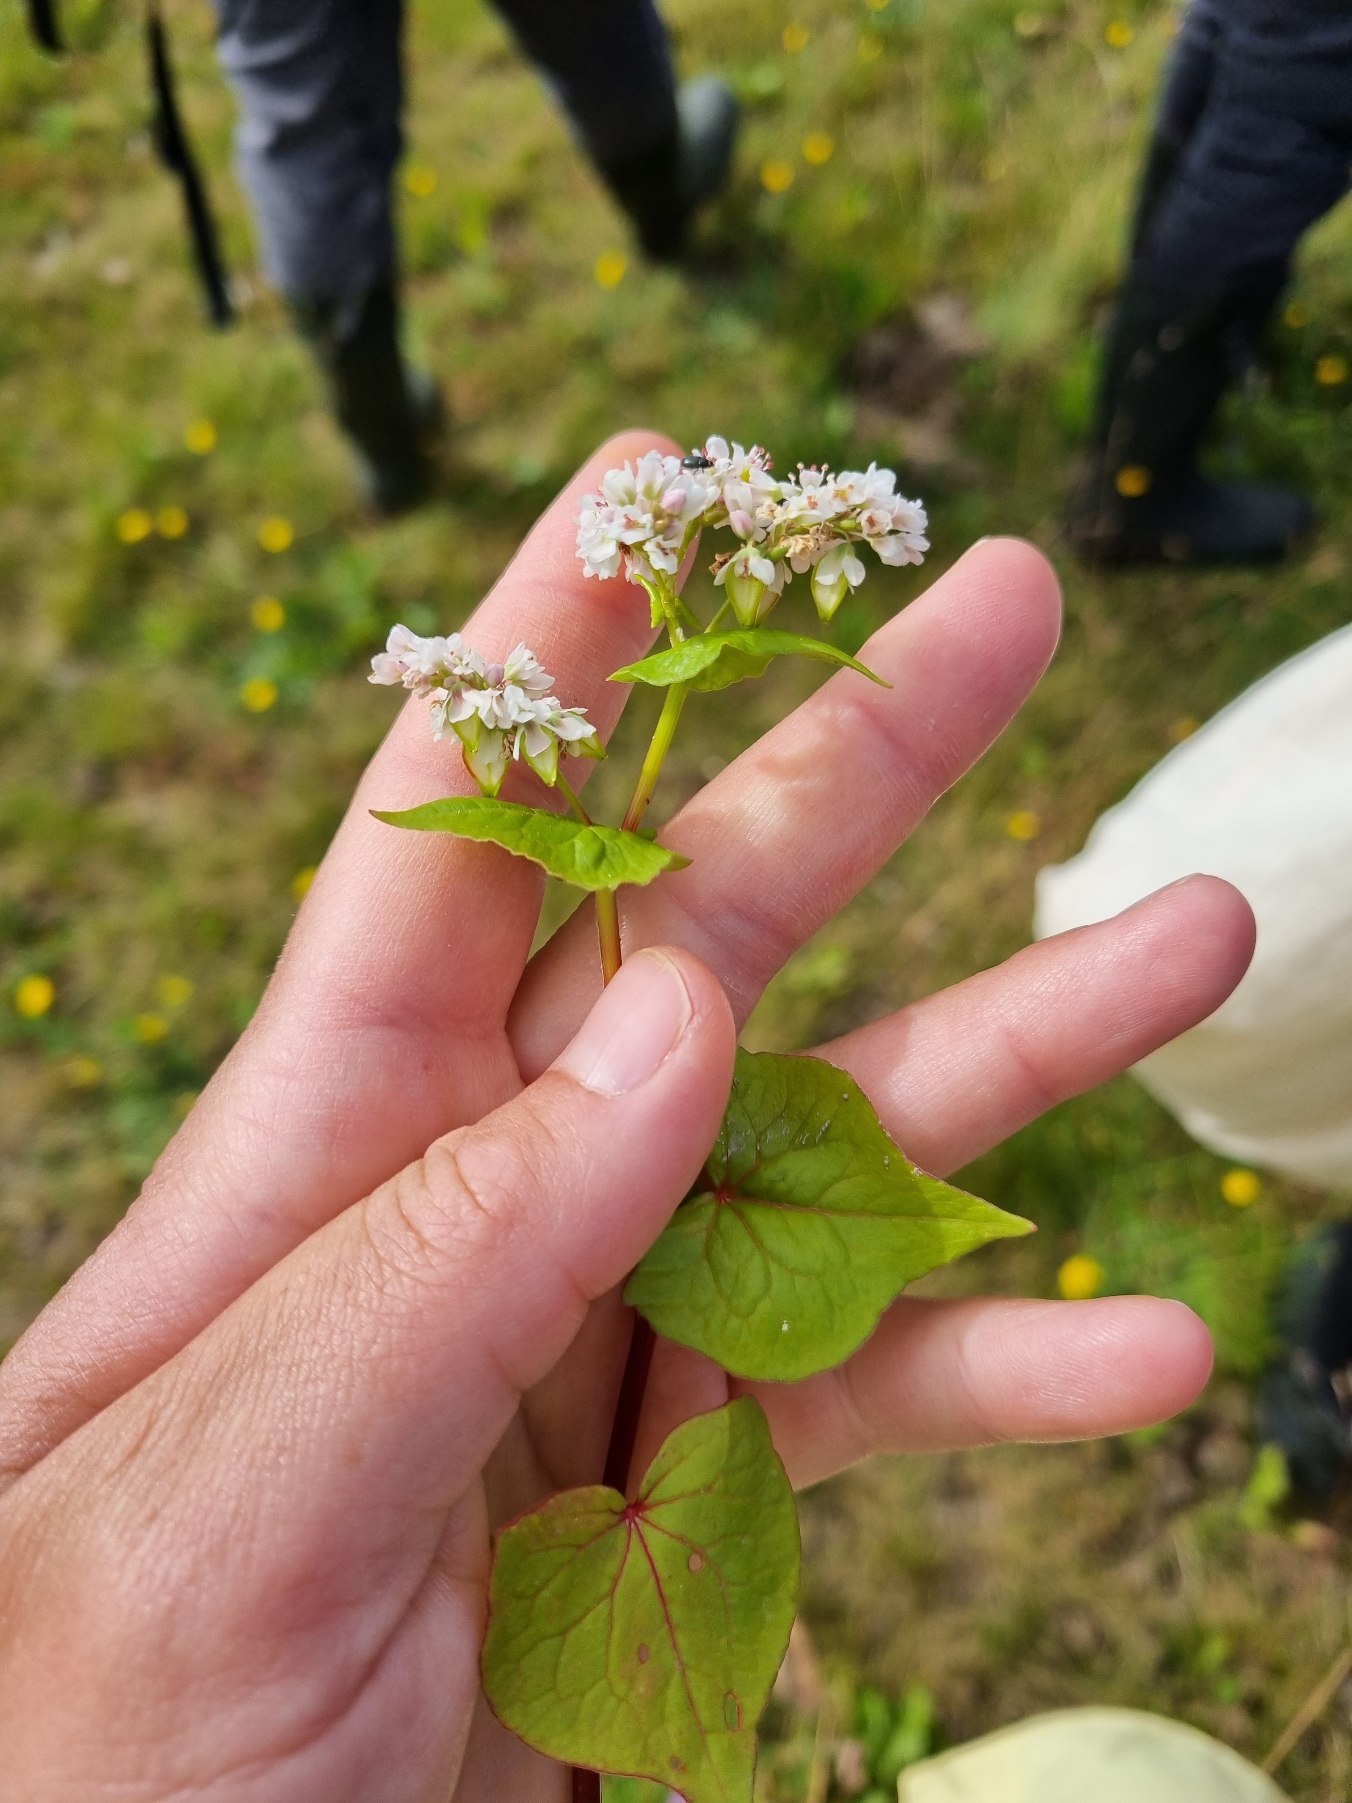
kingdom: Plantae
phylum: Tracheophyta
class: Magnoliopsida
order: Caryophyllales
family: Polygonaceae
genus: Fagopyrum
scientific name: Fagopyrum esculentum
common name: Almindelig boghvede
